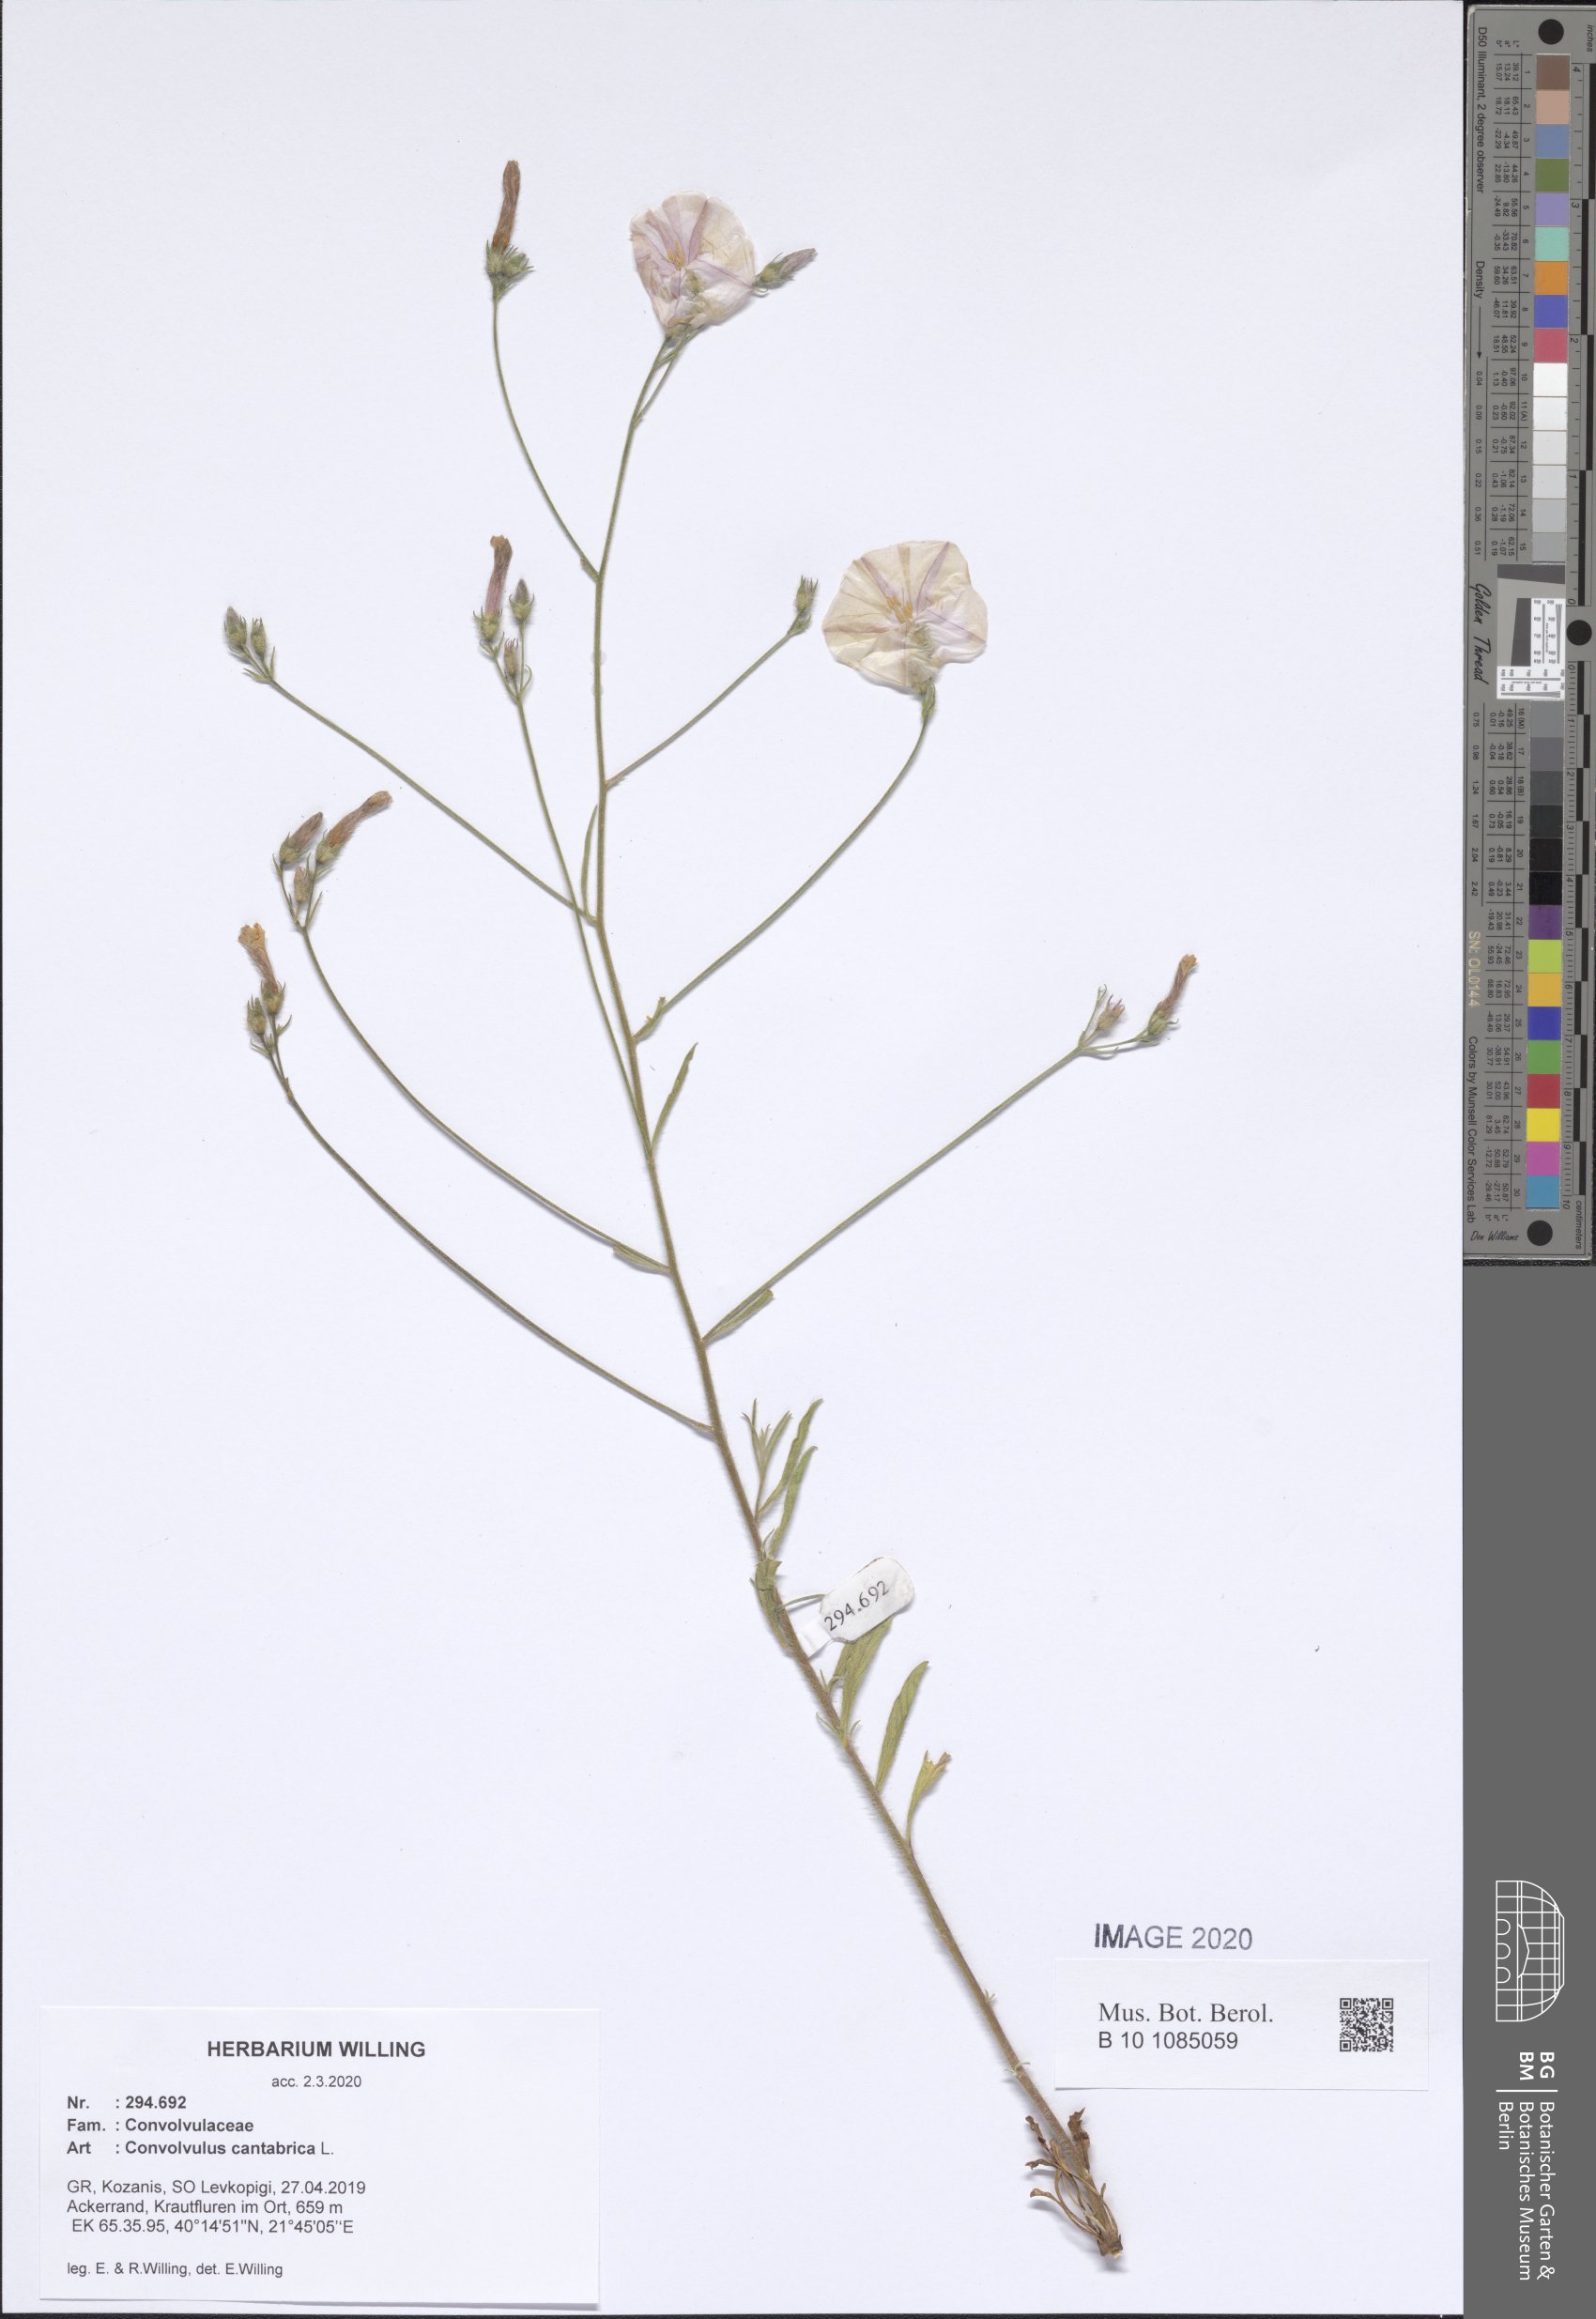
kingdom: Plantae
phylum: Tracheophyta
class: Magnoliopsida
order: Solanales
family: Convolvulaceae
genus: Convolvulus
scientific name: Convolvulus cantabrica
